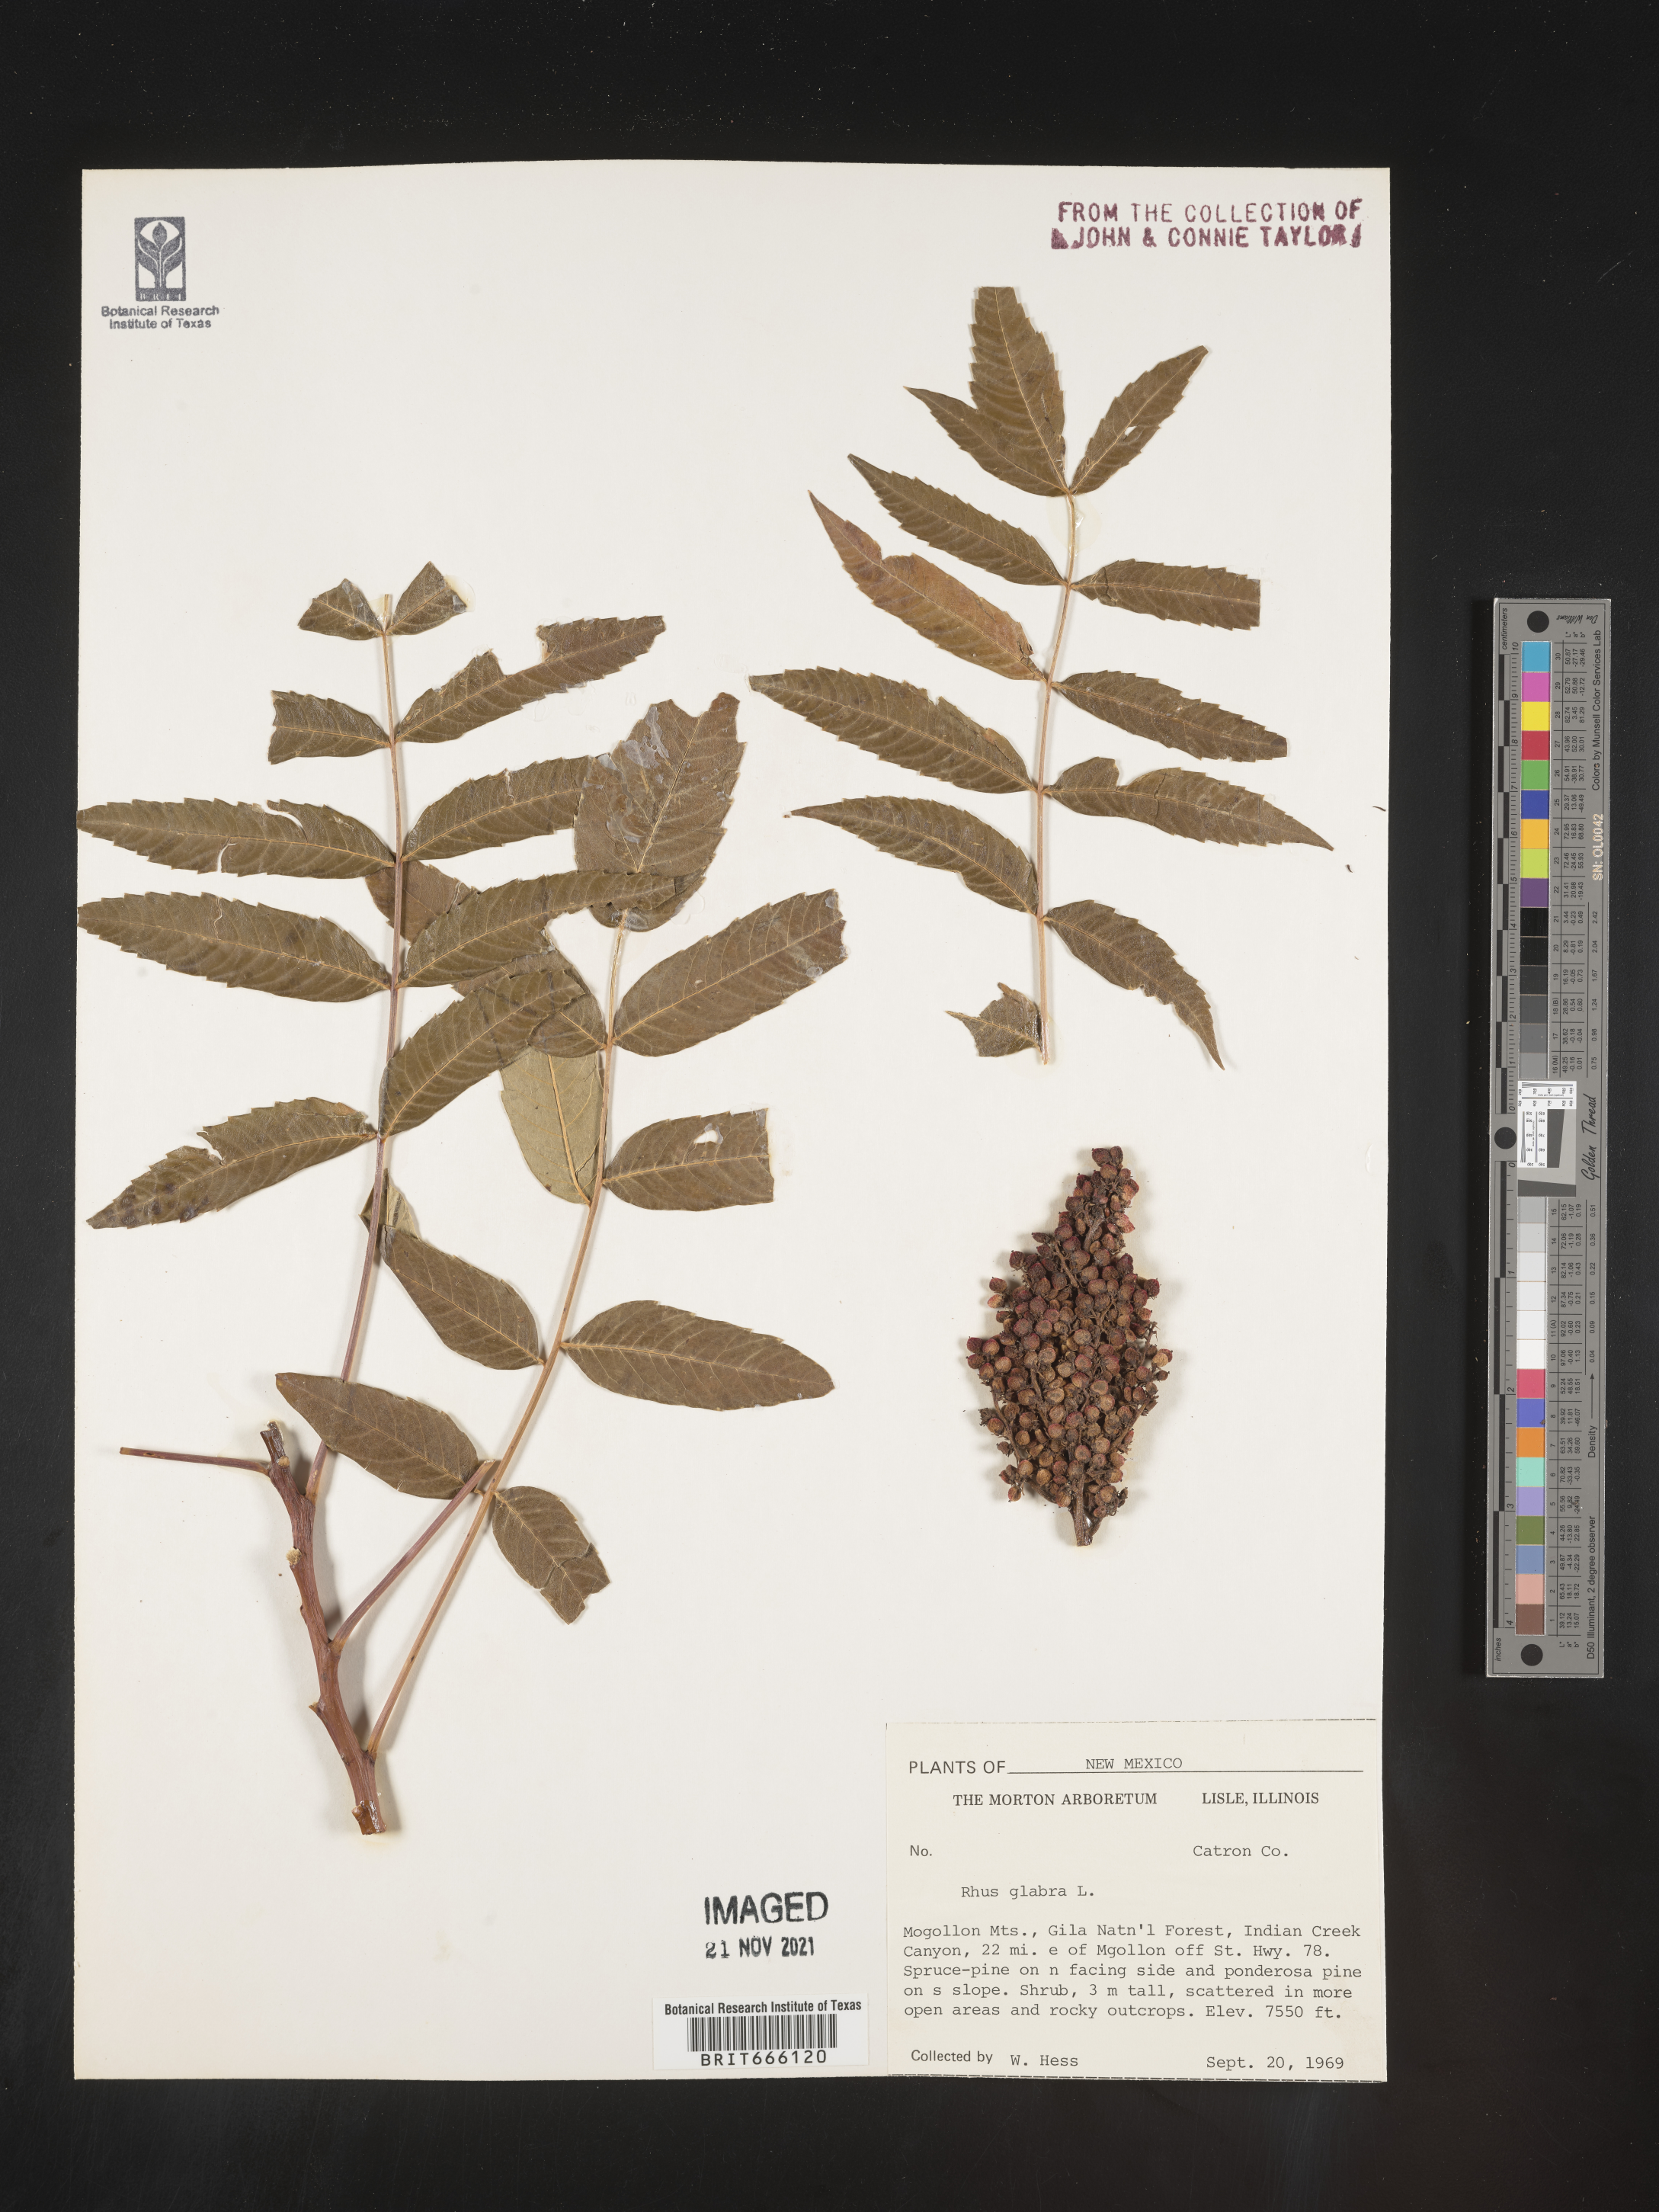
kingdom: Plantae
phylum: Tracheophyta
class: Magnoliopsida
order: Sapindales
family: Anacardiaceae
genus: Rhus
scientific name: Rhus glabra
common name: Scarlet sumac
